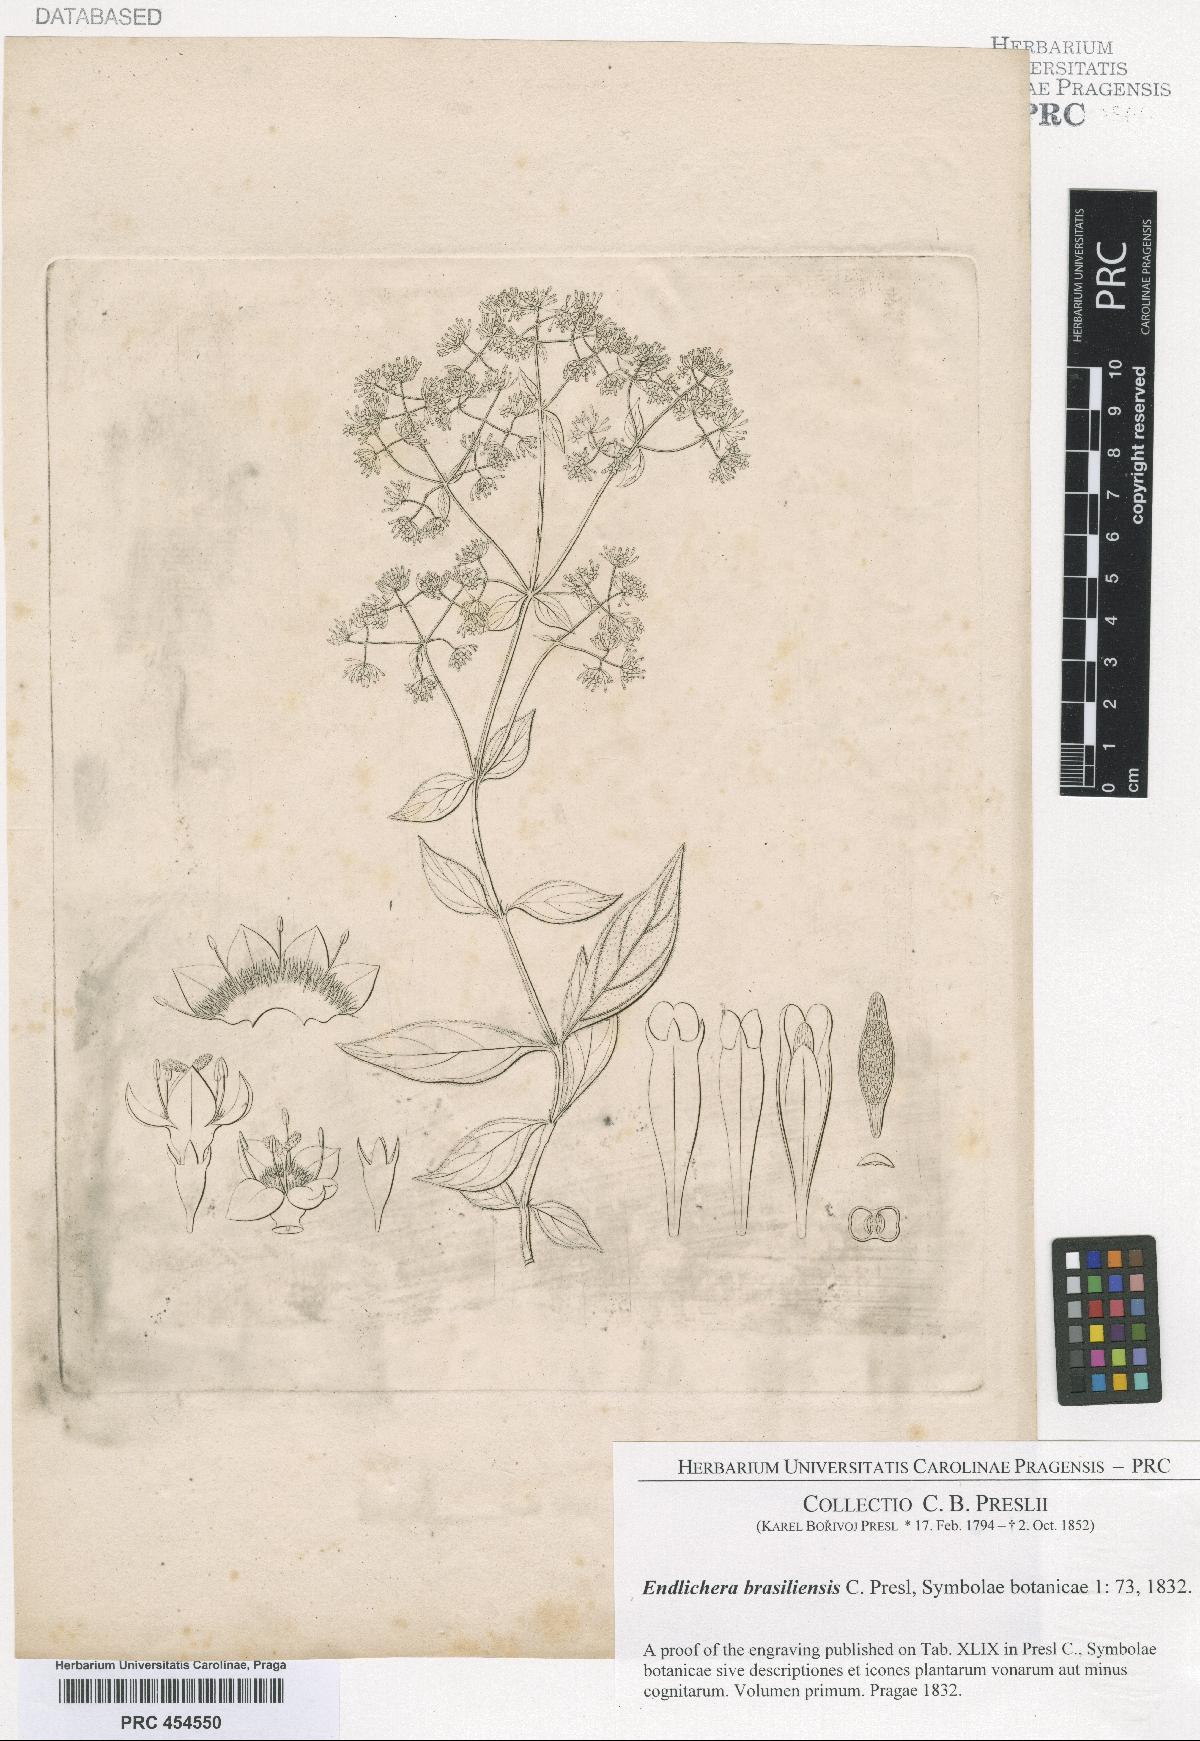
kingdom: Plantae
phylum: Tracheophyta
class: Magnoliopsida
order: Gentianales
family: Rubiaceae
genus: Emmeorhiza
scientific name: Emmeorhiza umbellata
